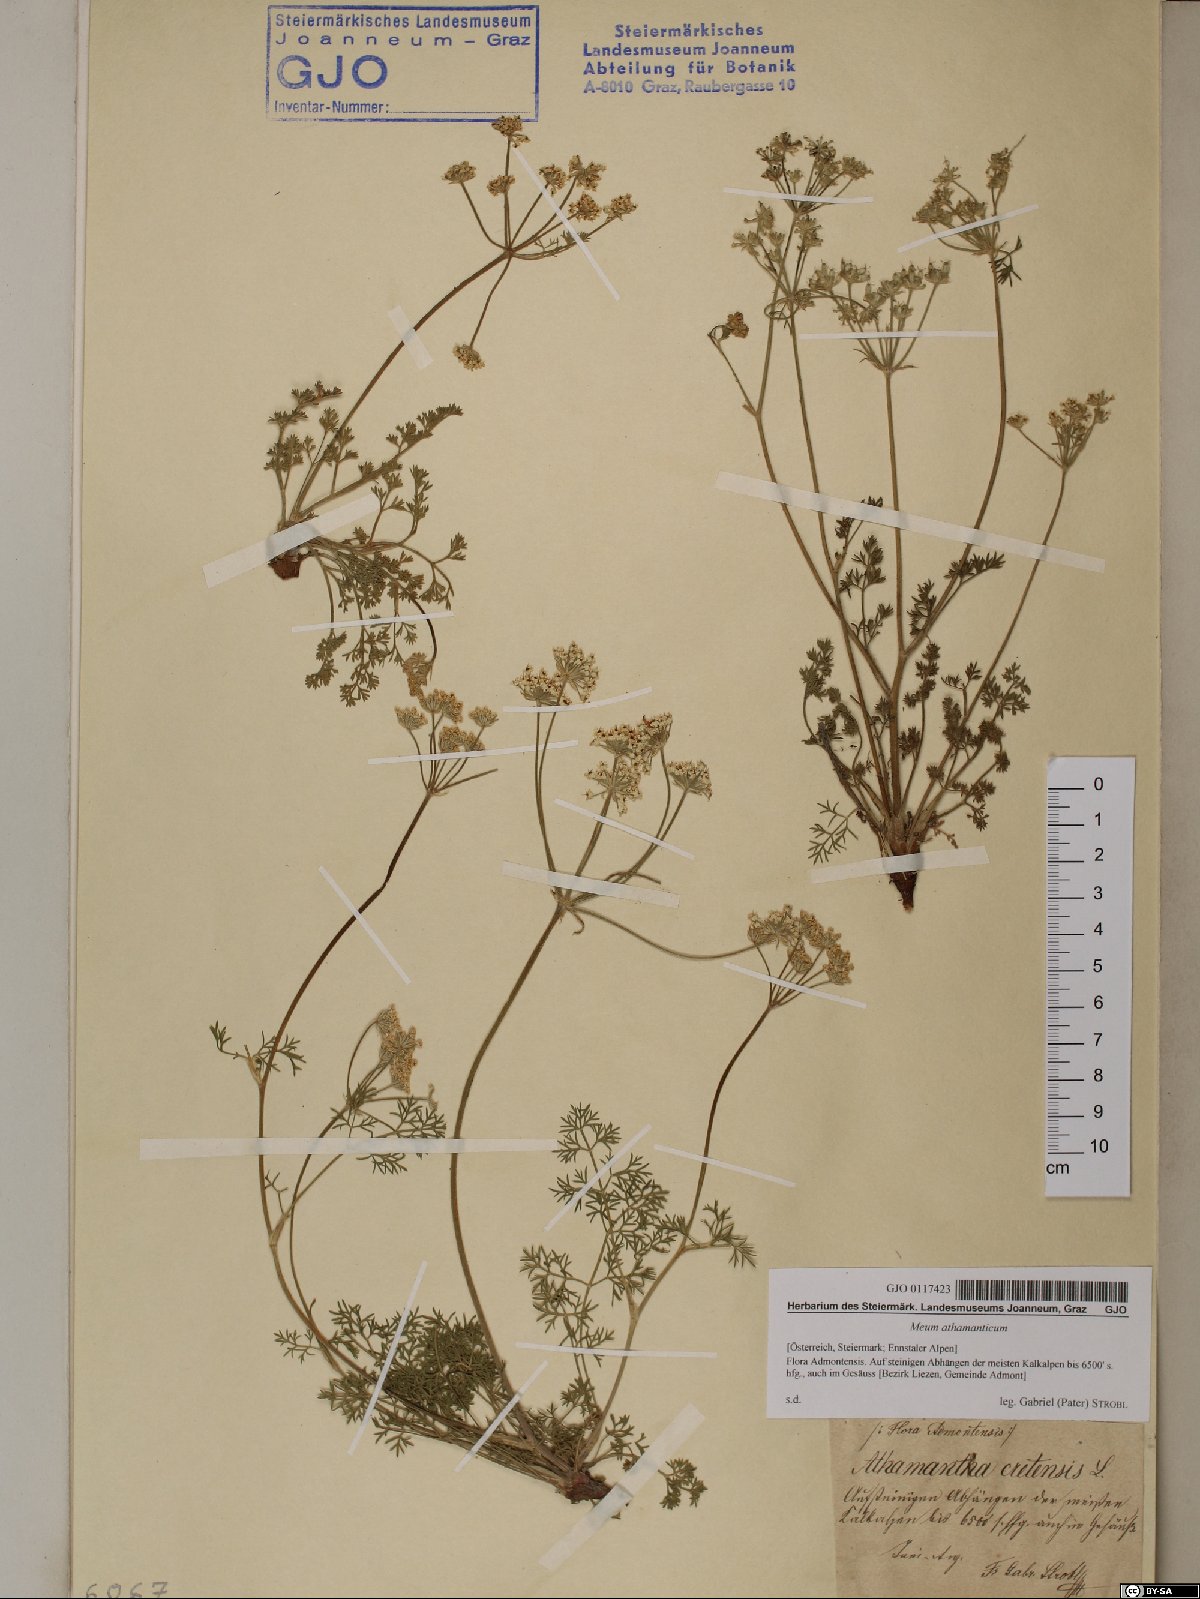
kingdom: Plantae
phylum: Tracheophyta
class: Magnoliopsida
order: Apiales
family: Apiaceae
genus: Meum
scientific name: Meum athamanticum
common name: Spignel
